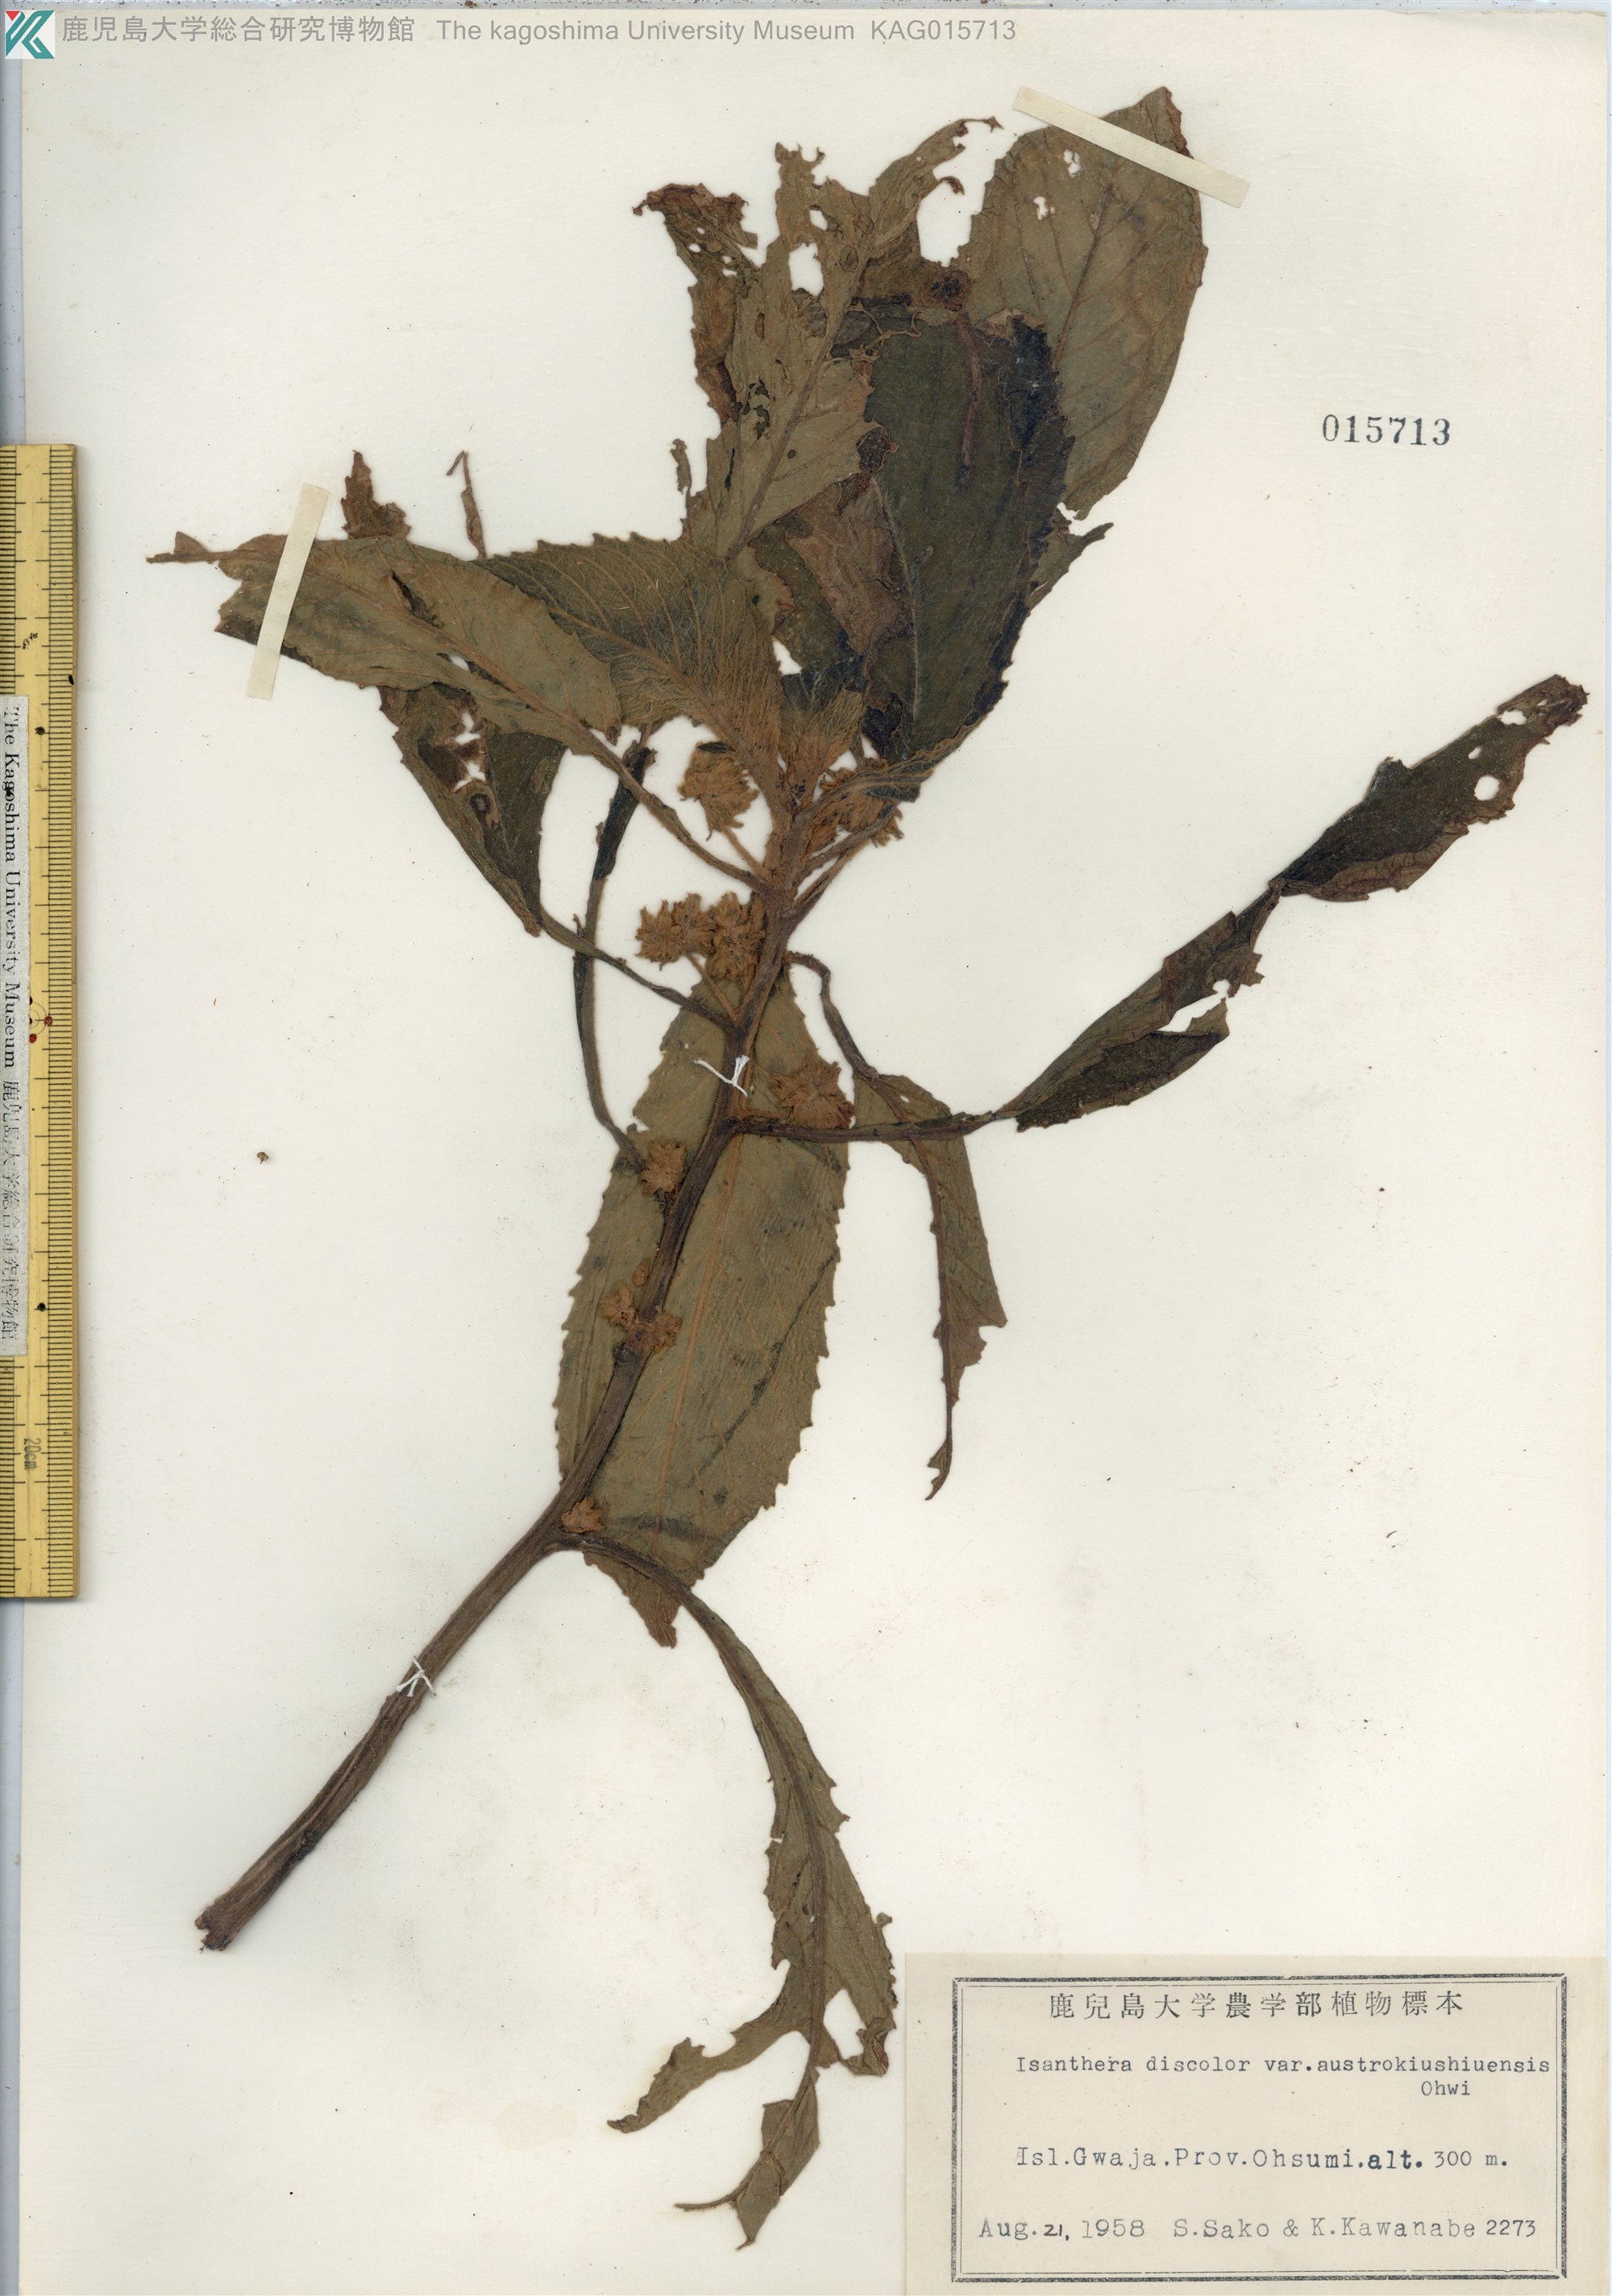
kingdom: Plantae
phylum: Tracheophyta
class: Magnoliopsida
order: Lamiales
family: Gesneriaceae
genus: Rhynchotechum
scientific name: Rhynchotechum discolor
